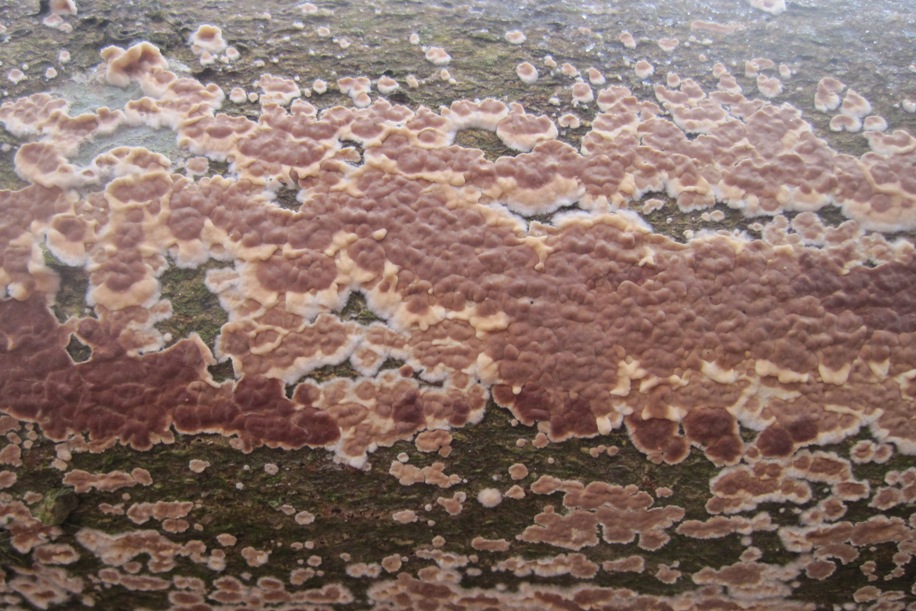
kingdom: Fungi
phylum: Basidiomycota
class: Agaricomycetes
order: Agaricales
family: Physalacriaceae
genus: Cylindrobasidium
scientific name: Cylindrobasidium evolvens
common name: sprækkehinde
